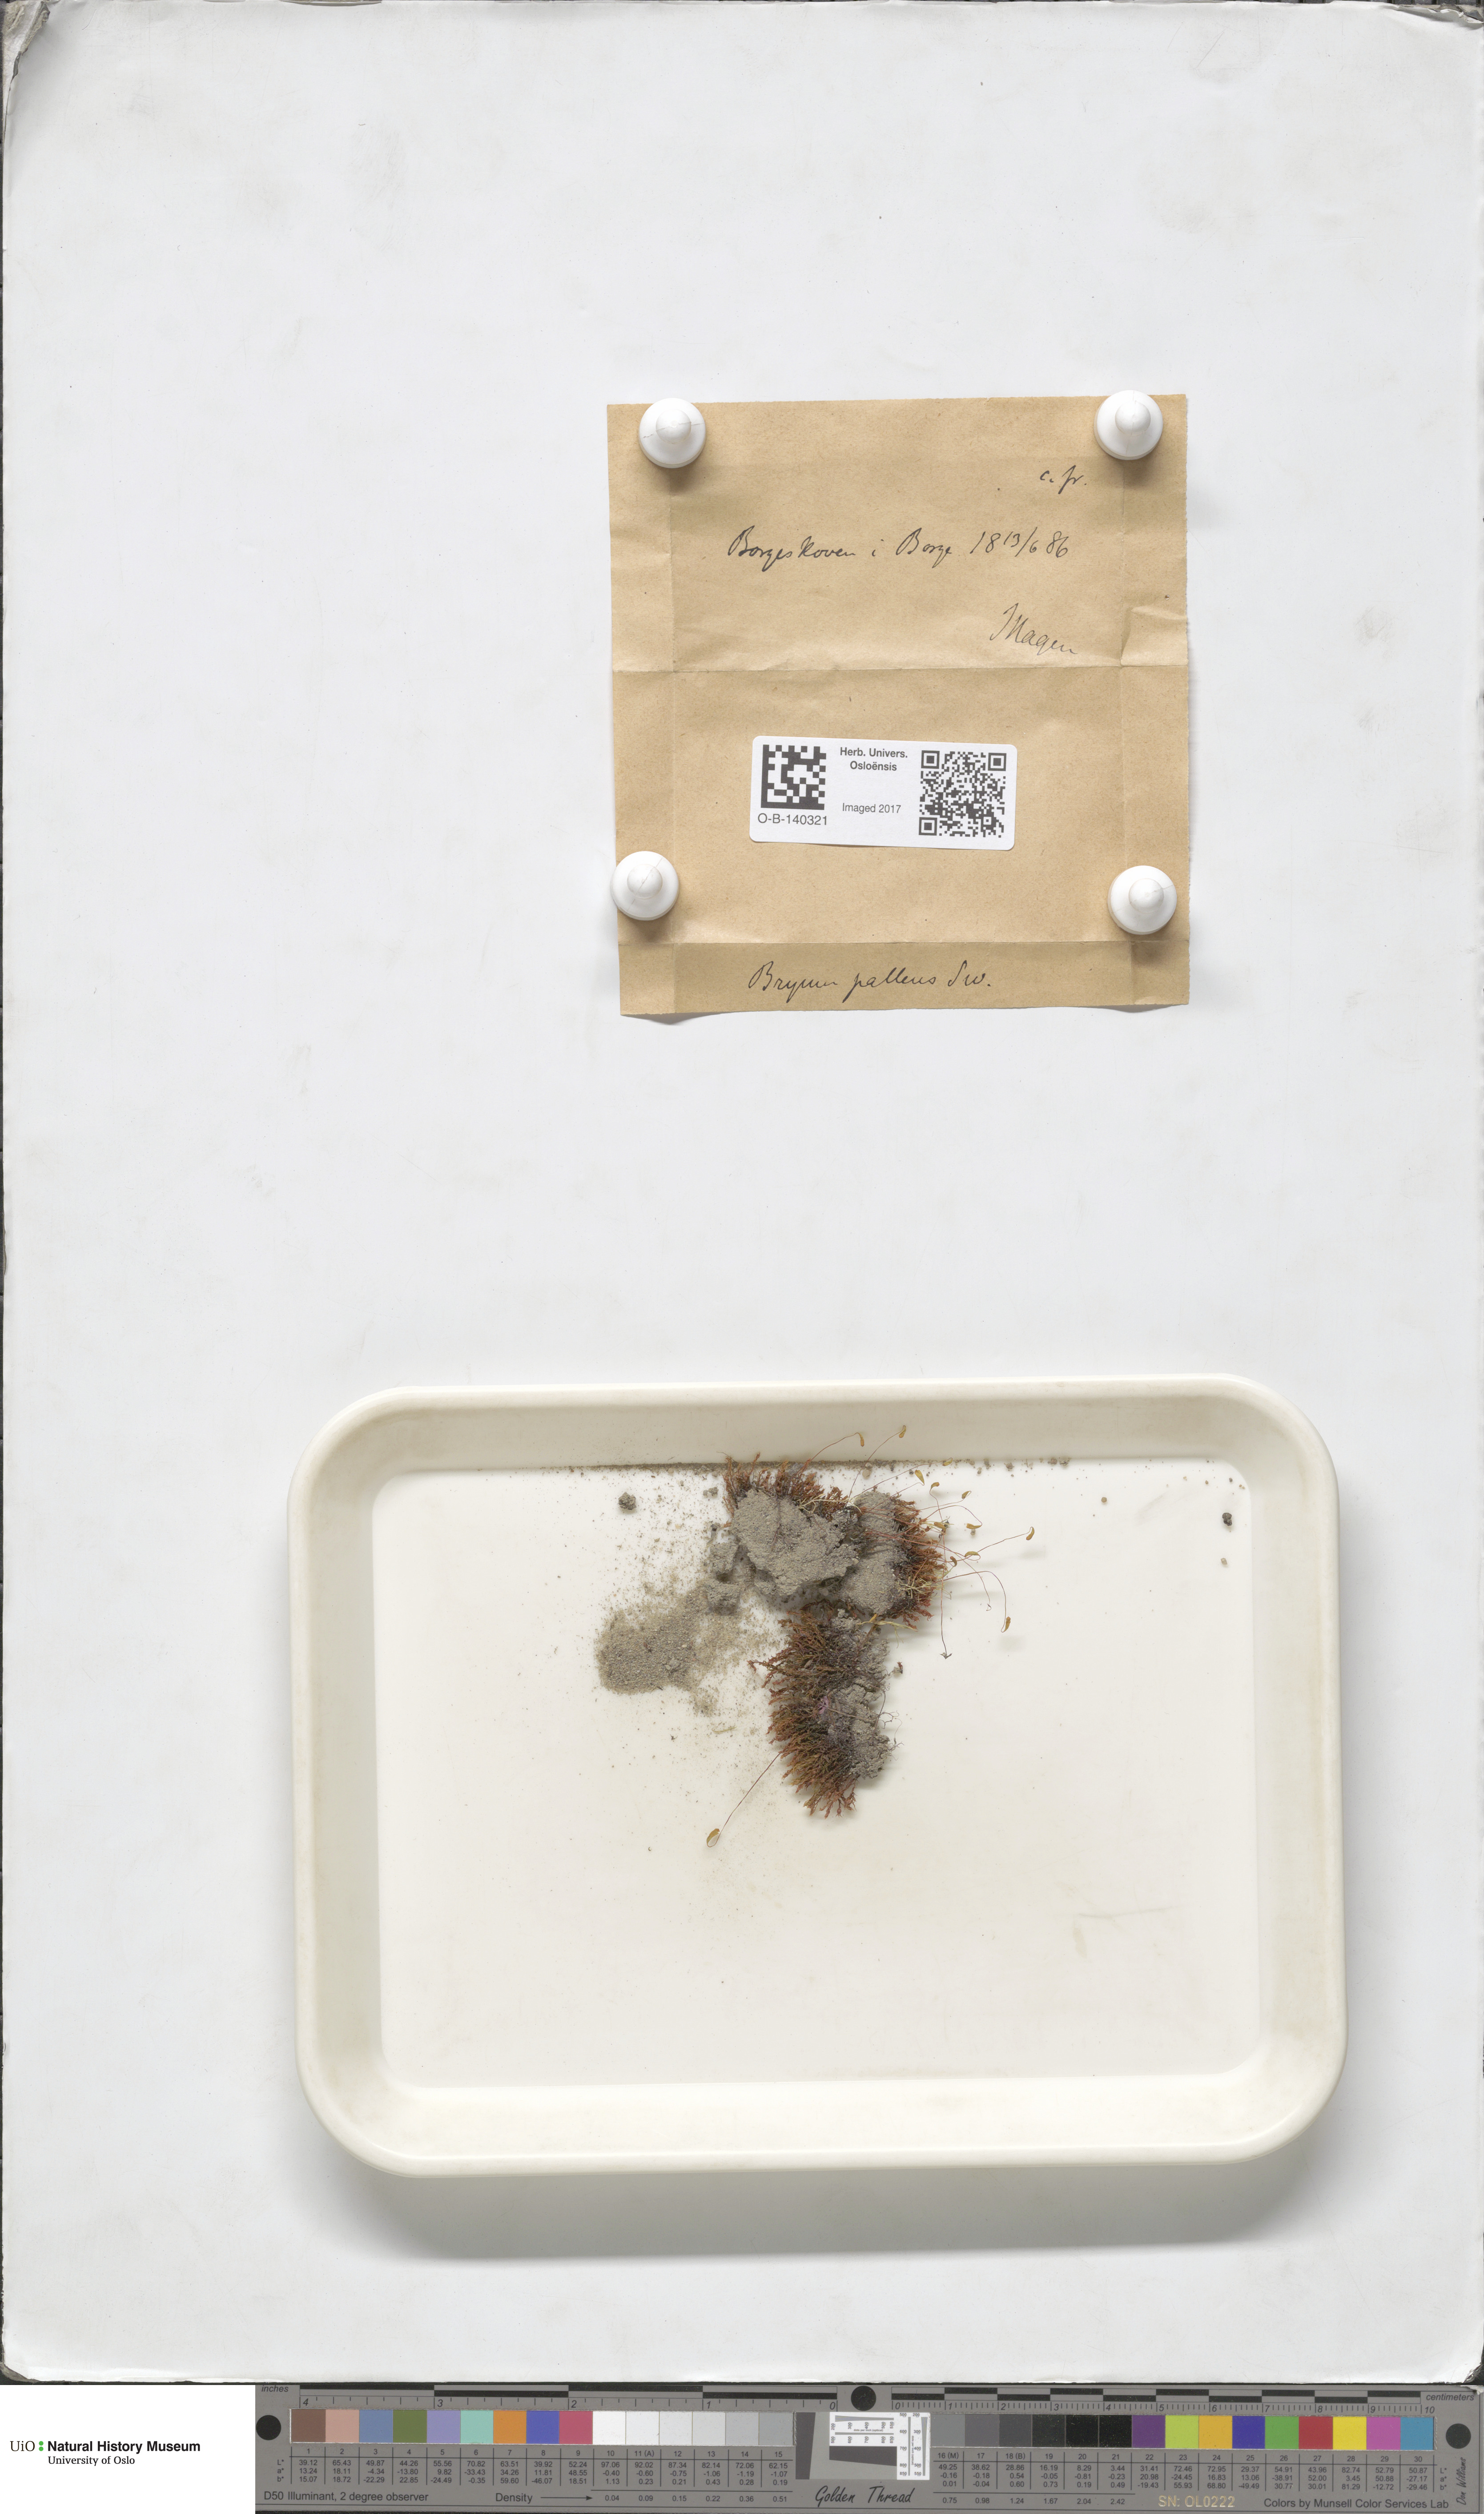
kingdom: Plantae
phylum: Bryophyta
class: Bryopsida
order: Bryales
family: Bryaceae
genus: Ptychostomum
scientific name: Ptychostomum pallens
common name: Pale thread-moss
